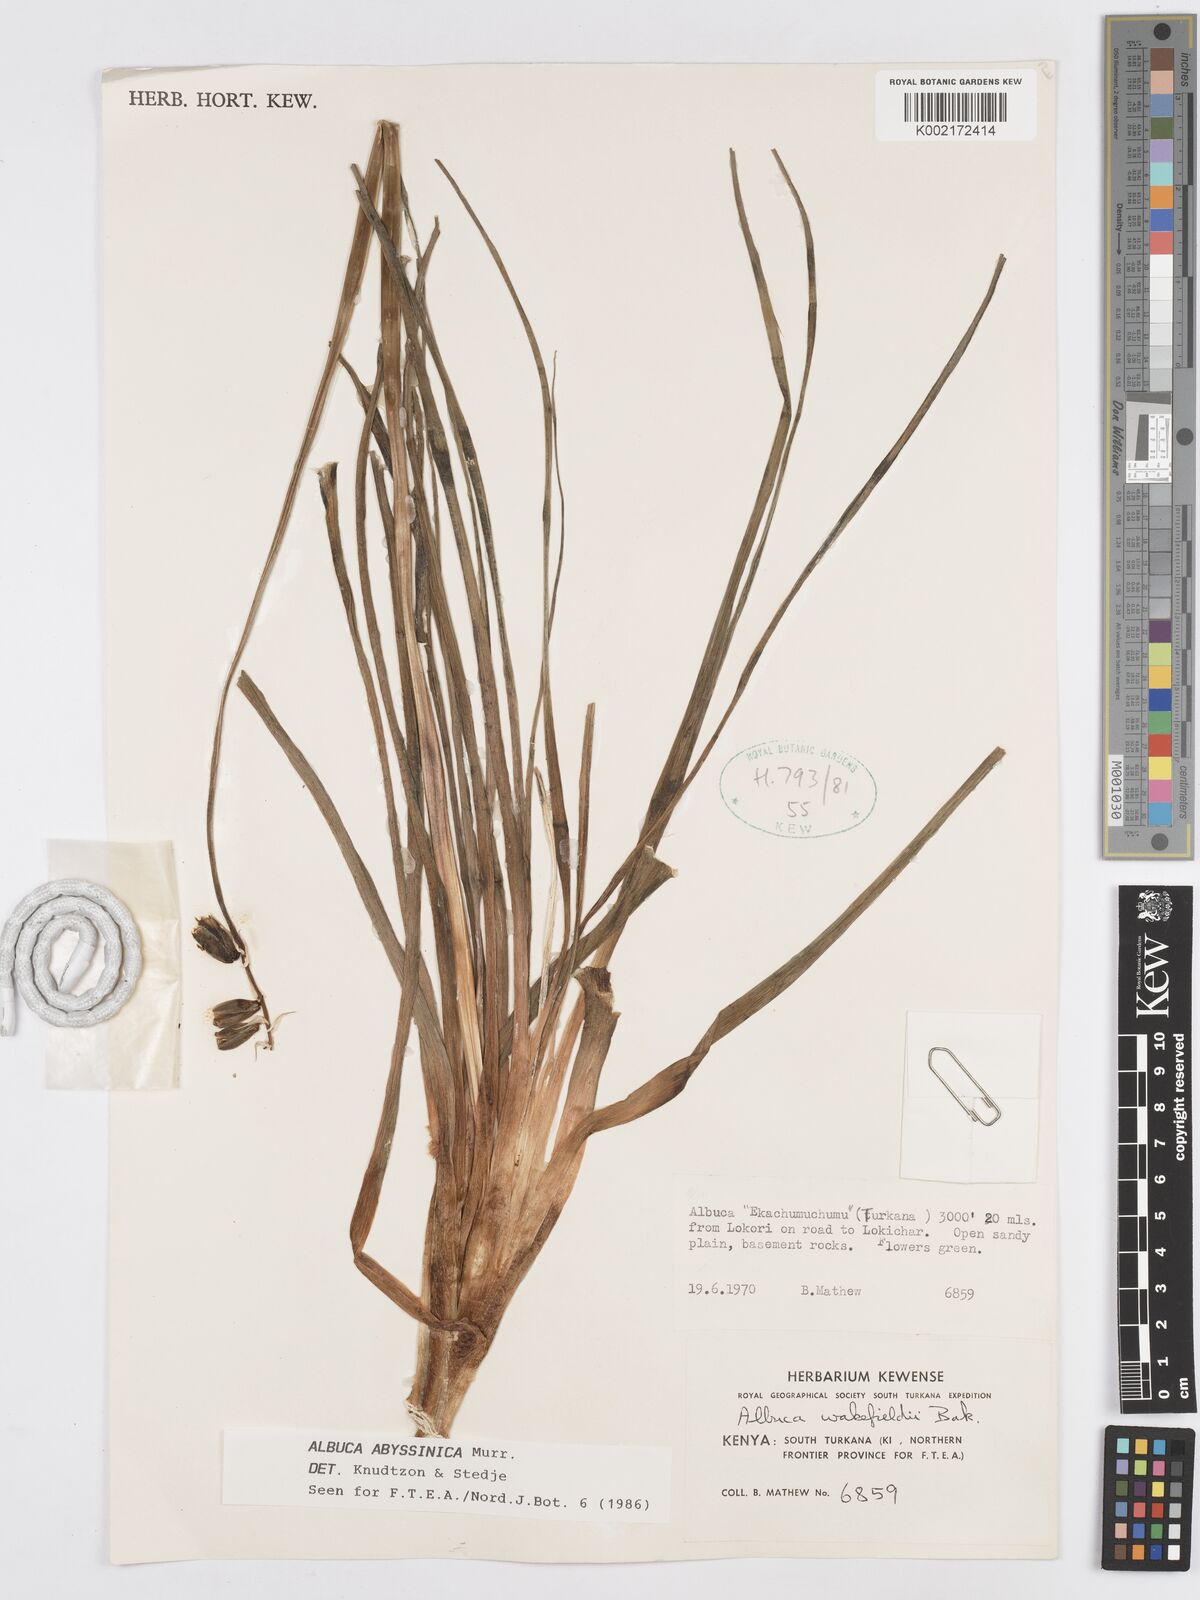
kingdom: Plantae
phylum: Tracheophyta
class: Liliopsida
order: Asparagales
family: Asparagaceae
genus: Albuca
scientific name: Albuca abyssinica
